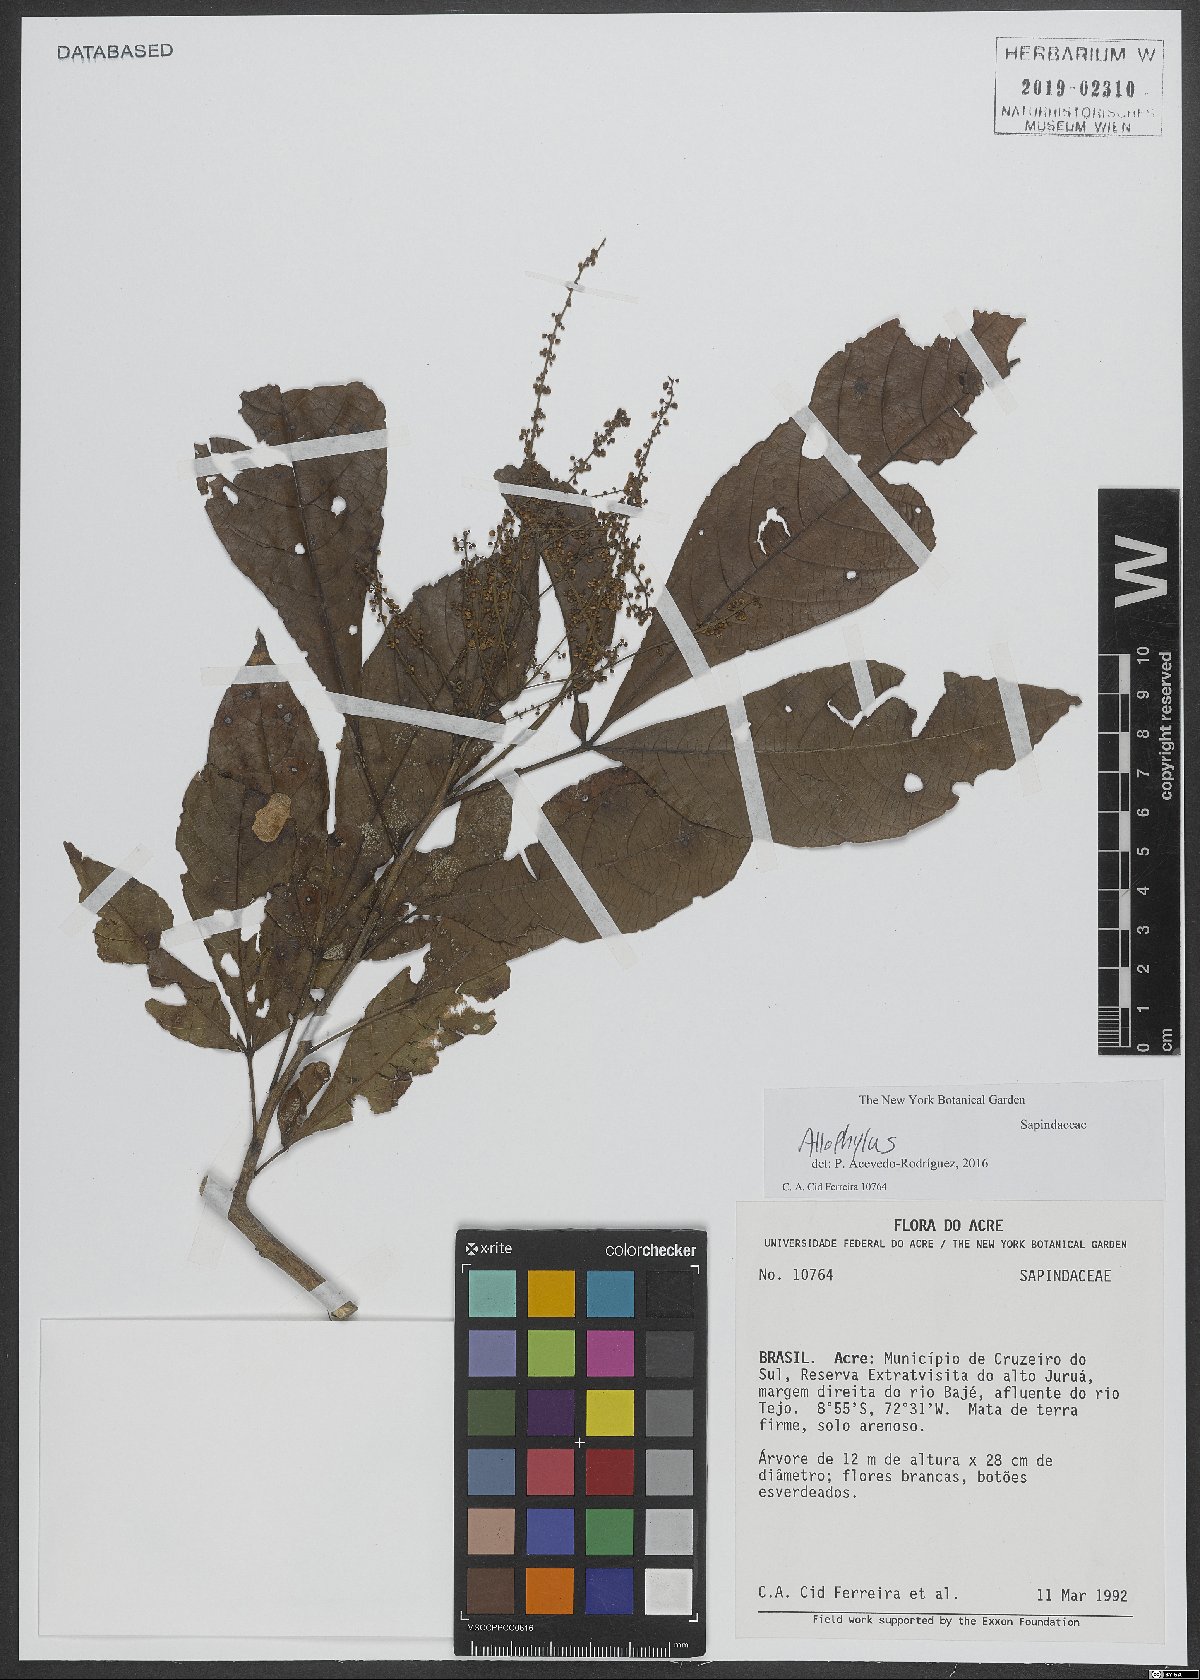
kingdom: Plantae
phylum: Tracheophyta
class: Magnoliopsida
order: Sapindales
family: Sapindaceae
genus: Allophylus
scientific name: Allophylus
